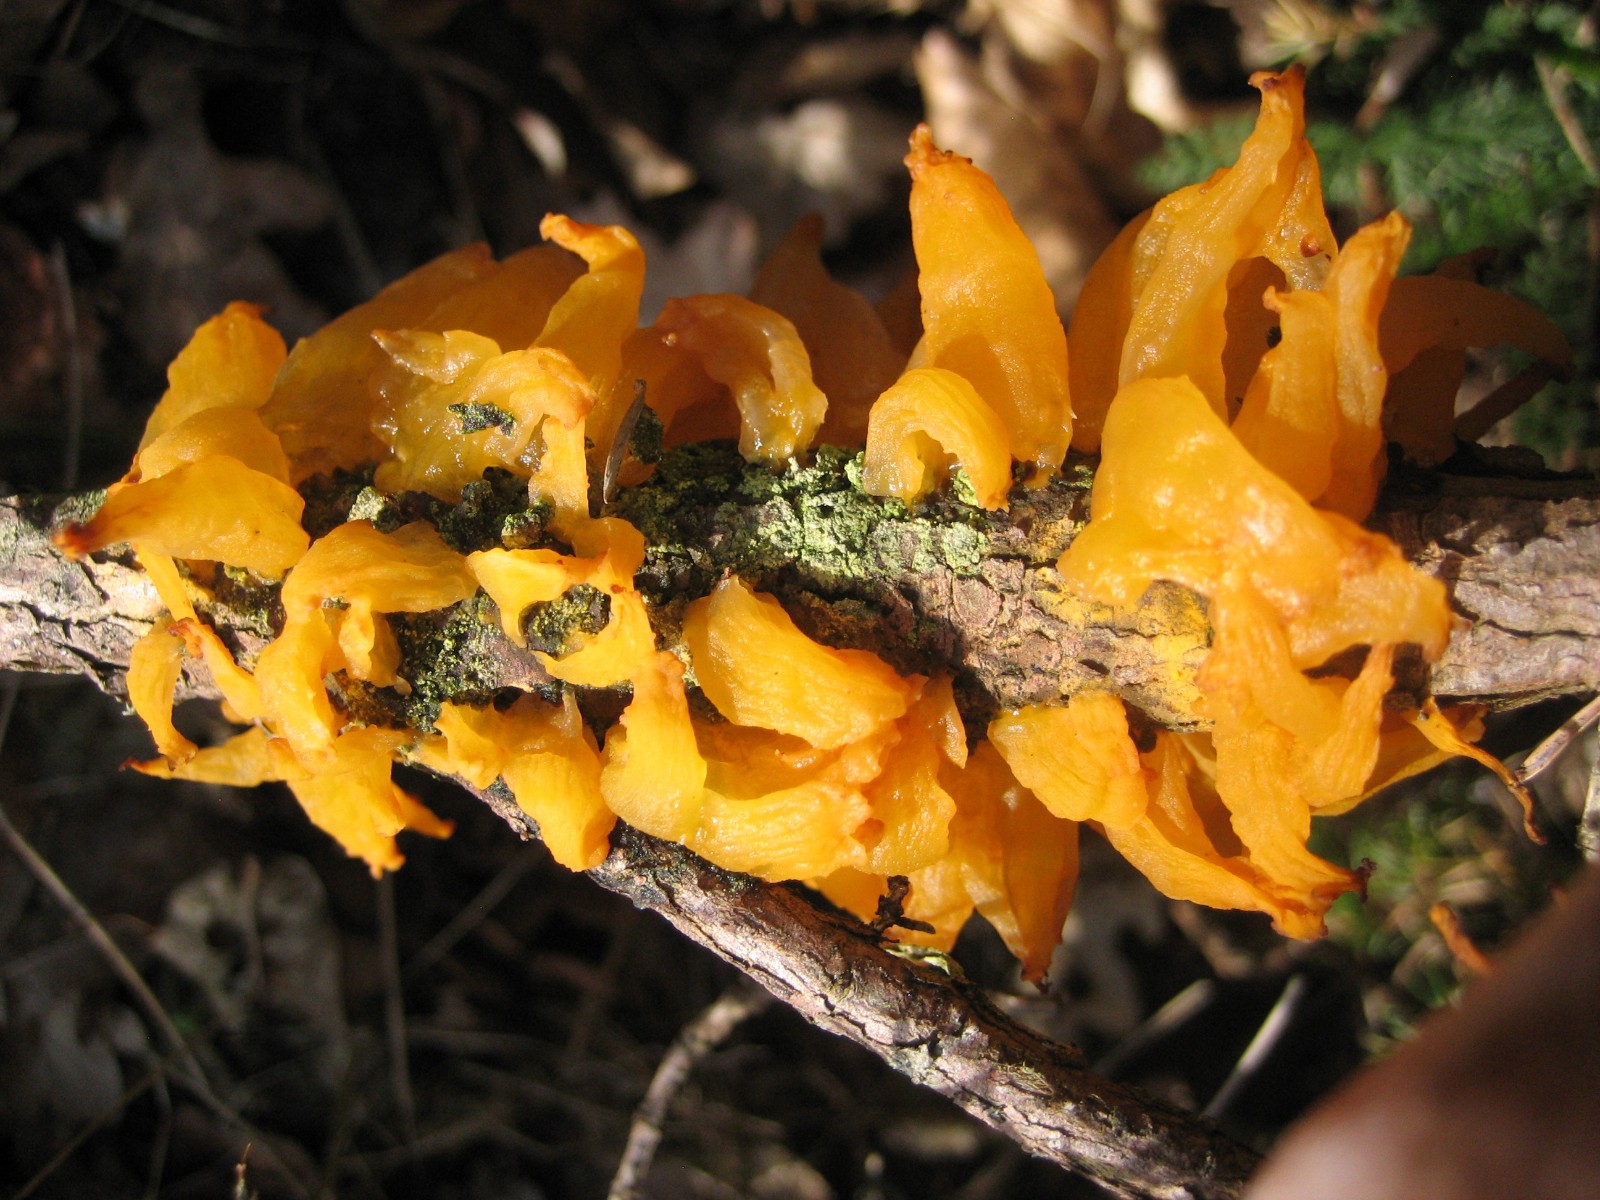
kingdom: Fungi
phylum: Basidiomycota
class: Pucciniomycetes
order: Pucciniales
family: Gymnosporangiaceae
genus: Gymnosporangium
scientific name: Gymnosporangium clavariiforme
